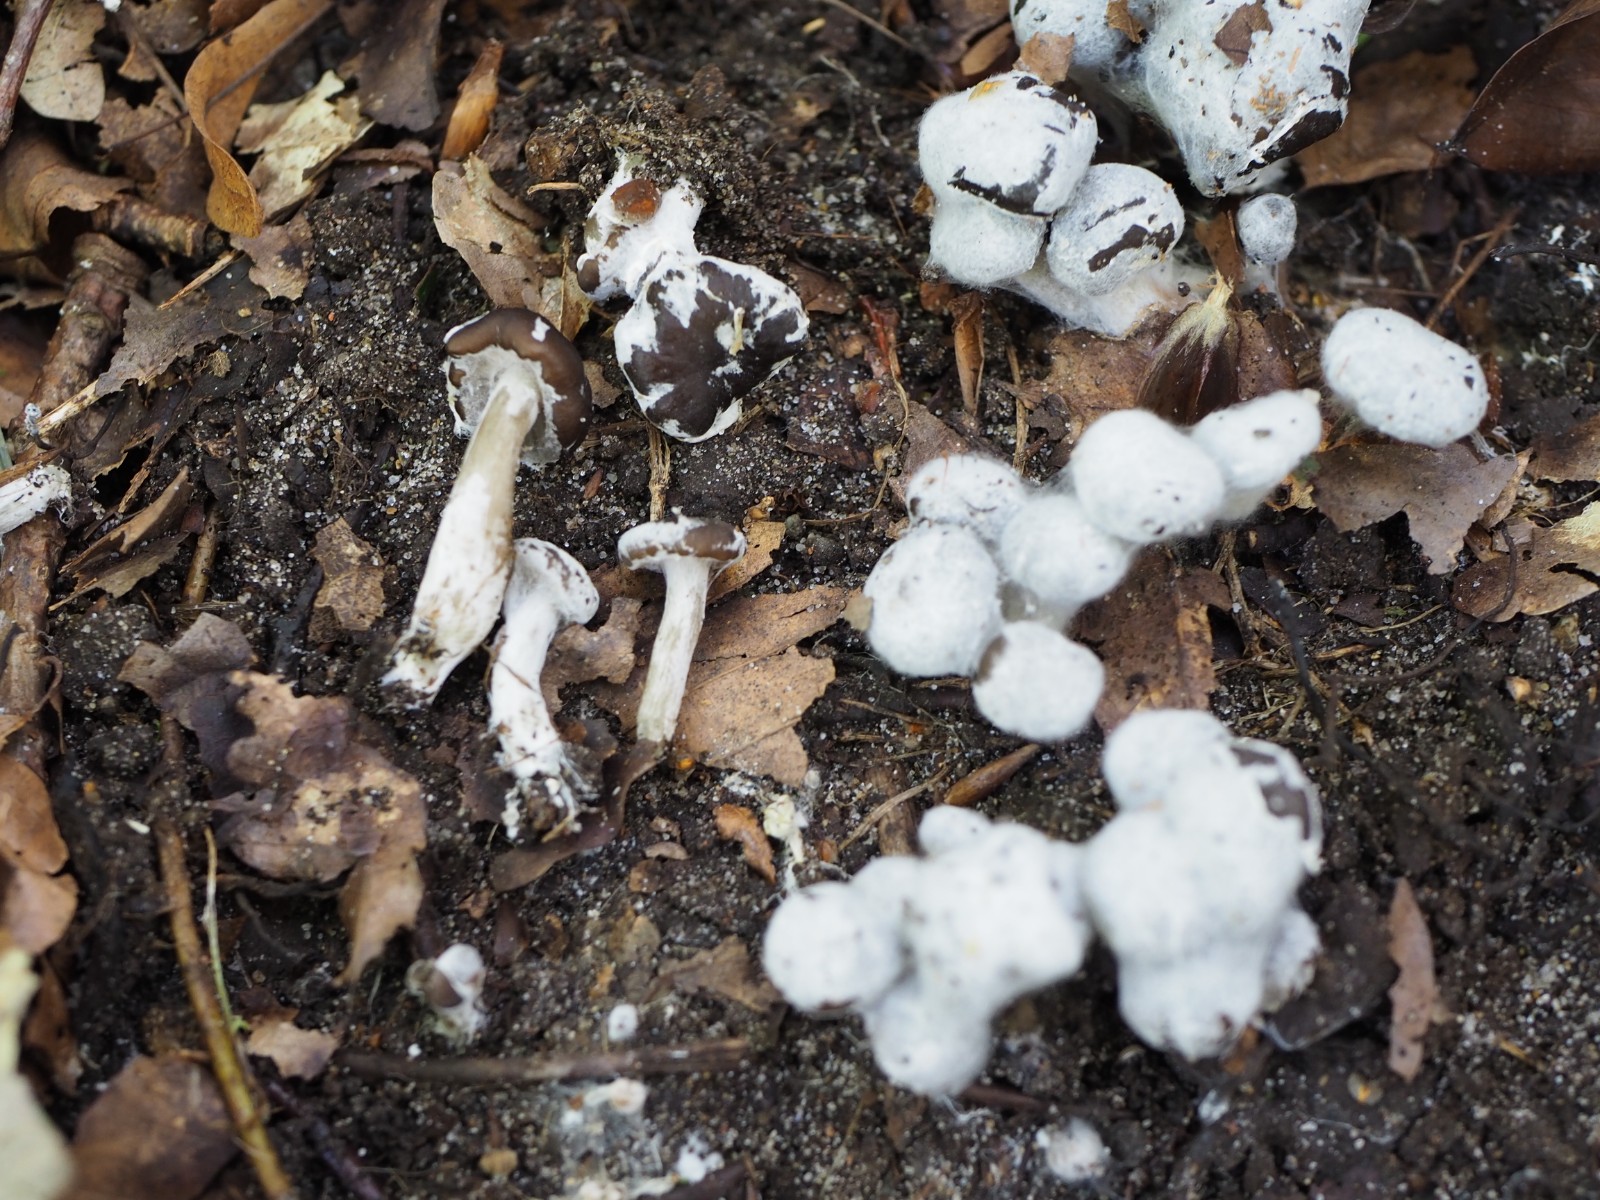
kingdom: Fungi
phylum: Basidiomycota
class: Agaricomycetes
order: Agaricales
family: Entolomataceae
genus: Entoloma
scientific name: Entoloma byssisedum
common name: Oysterling pinkgill
